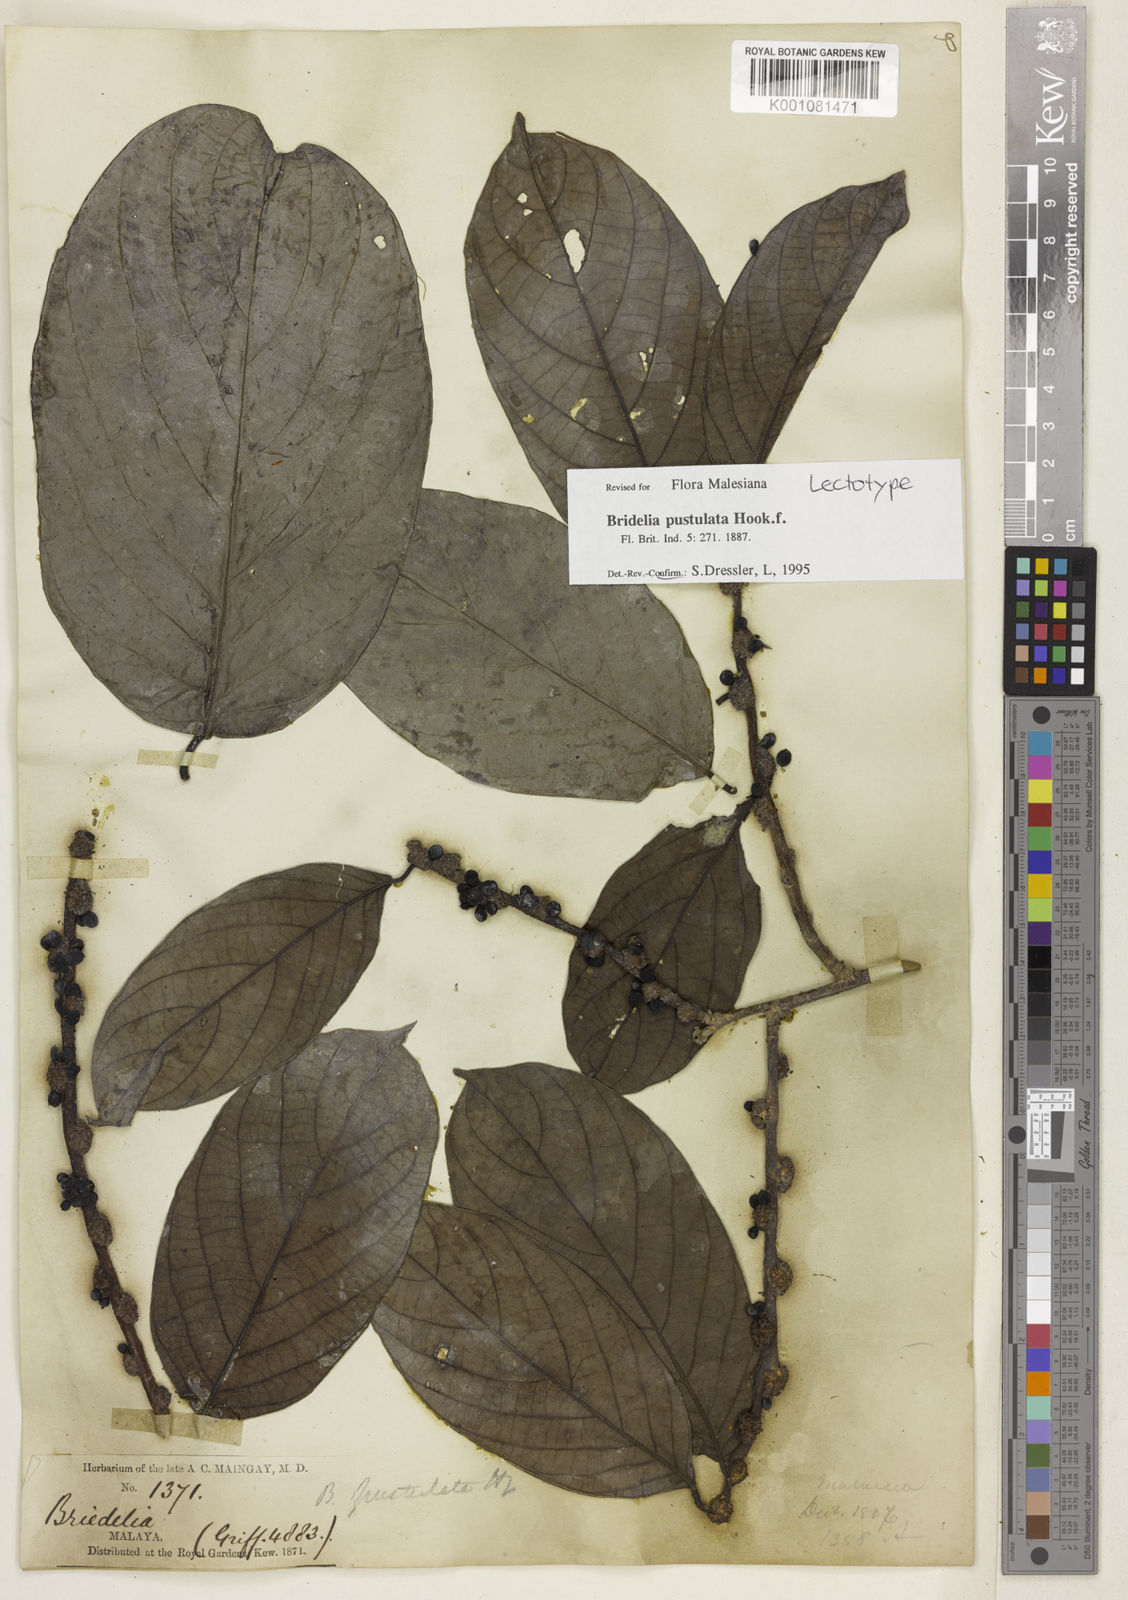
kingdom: Plantae
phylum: Tracheophyta
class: Magnoliopsida
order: Malpighiales
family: Phyllanthaceae
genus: Bridelia
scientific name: Bridelia pustulata
